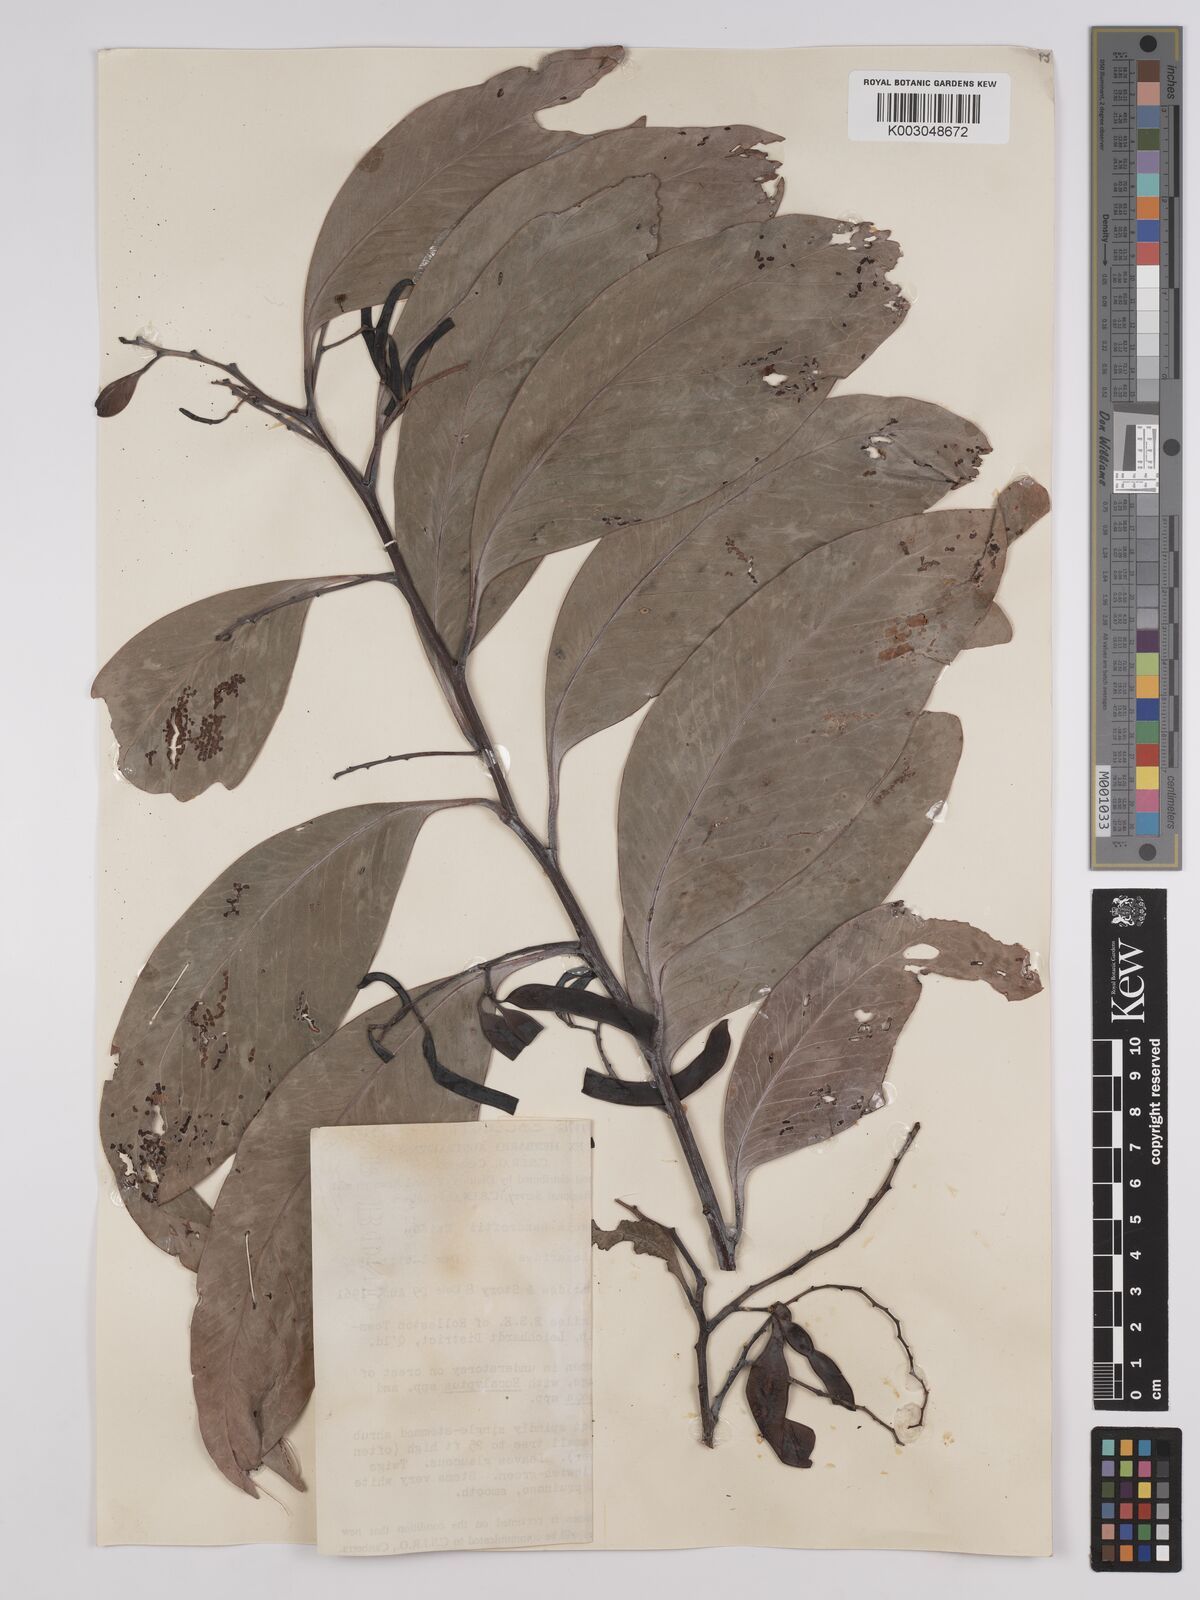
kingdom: Plantae
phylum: Tracheophyta
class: Magnoliopsida
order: Fabales
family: Fabaceae
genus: Acacia
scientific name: Acacia
